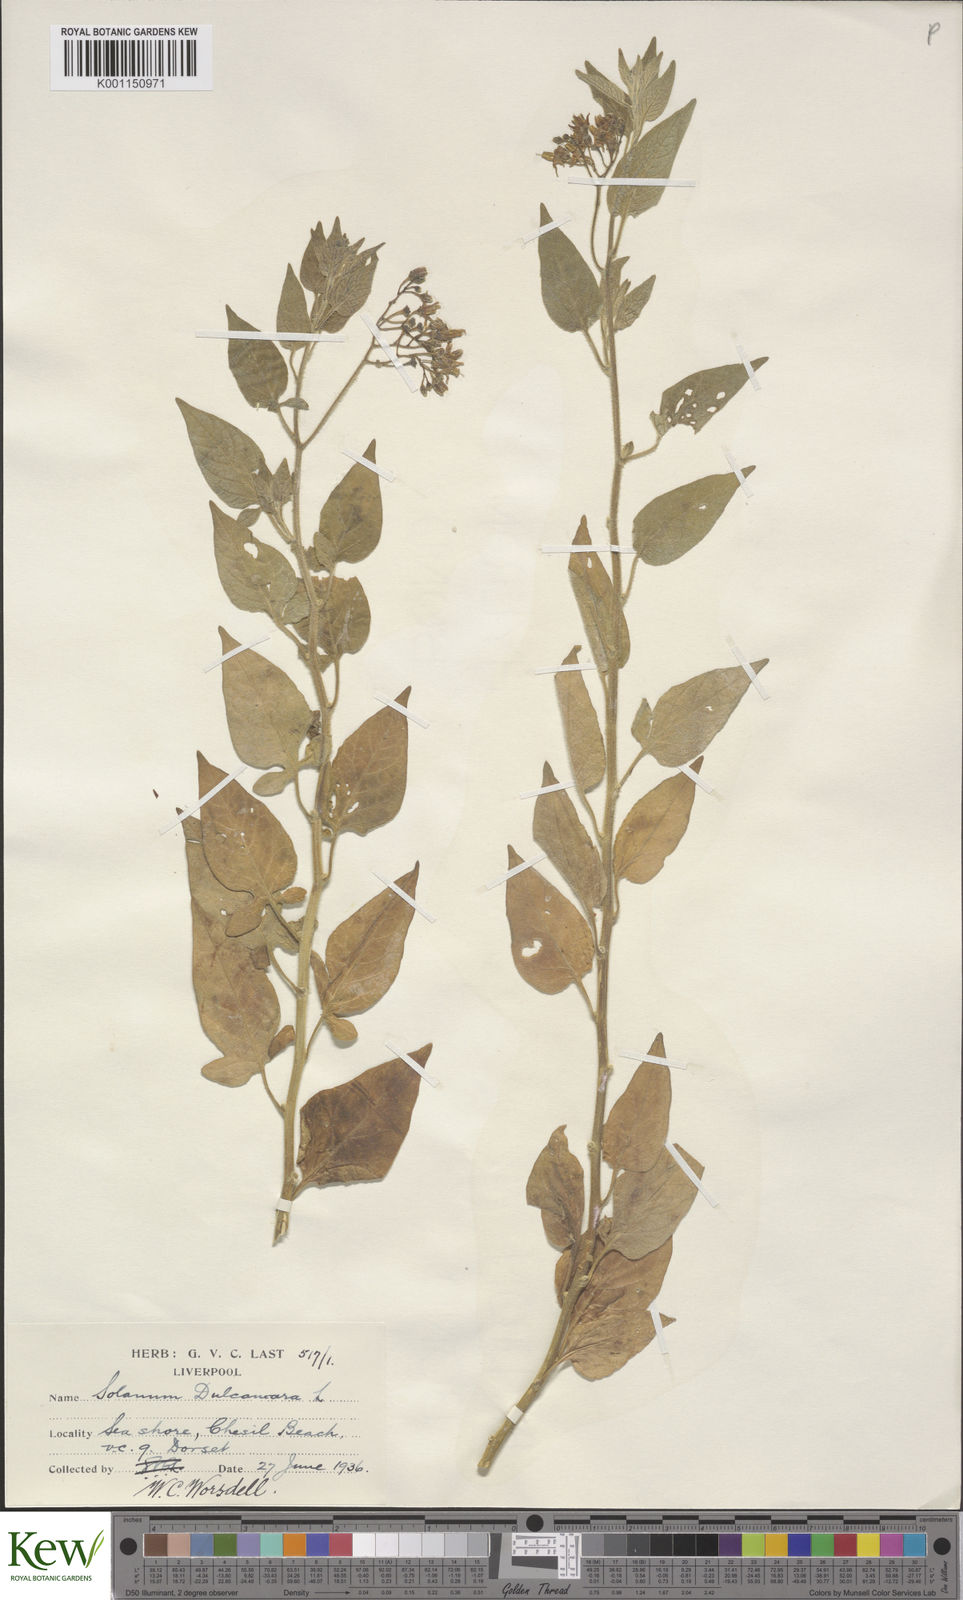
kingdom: Plantae
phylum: Tracheophyta
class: Magnoliopsida
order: Solanales
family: Solanaceae
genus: Solanum
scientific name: Solanum dulcamara
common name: Climbing nightshade
